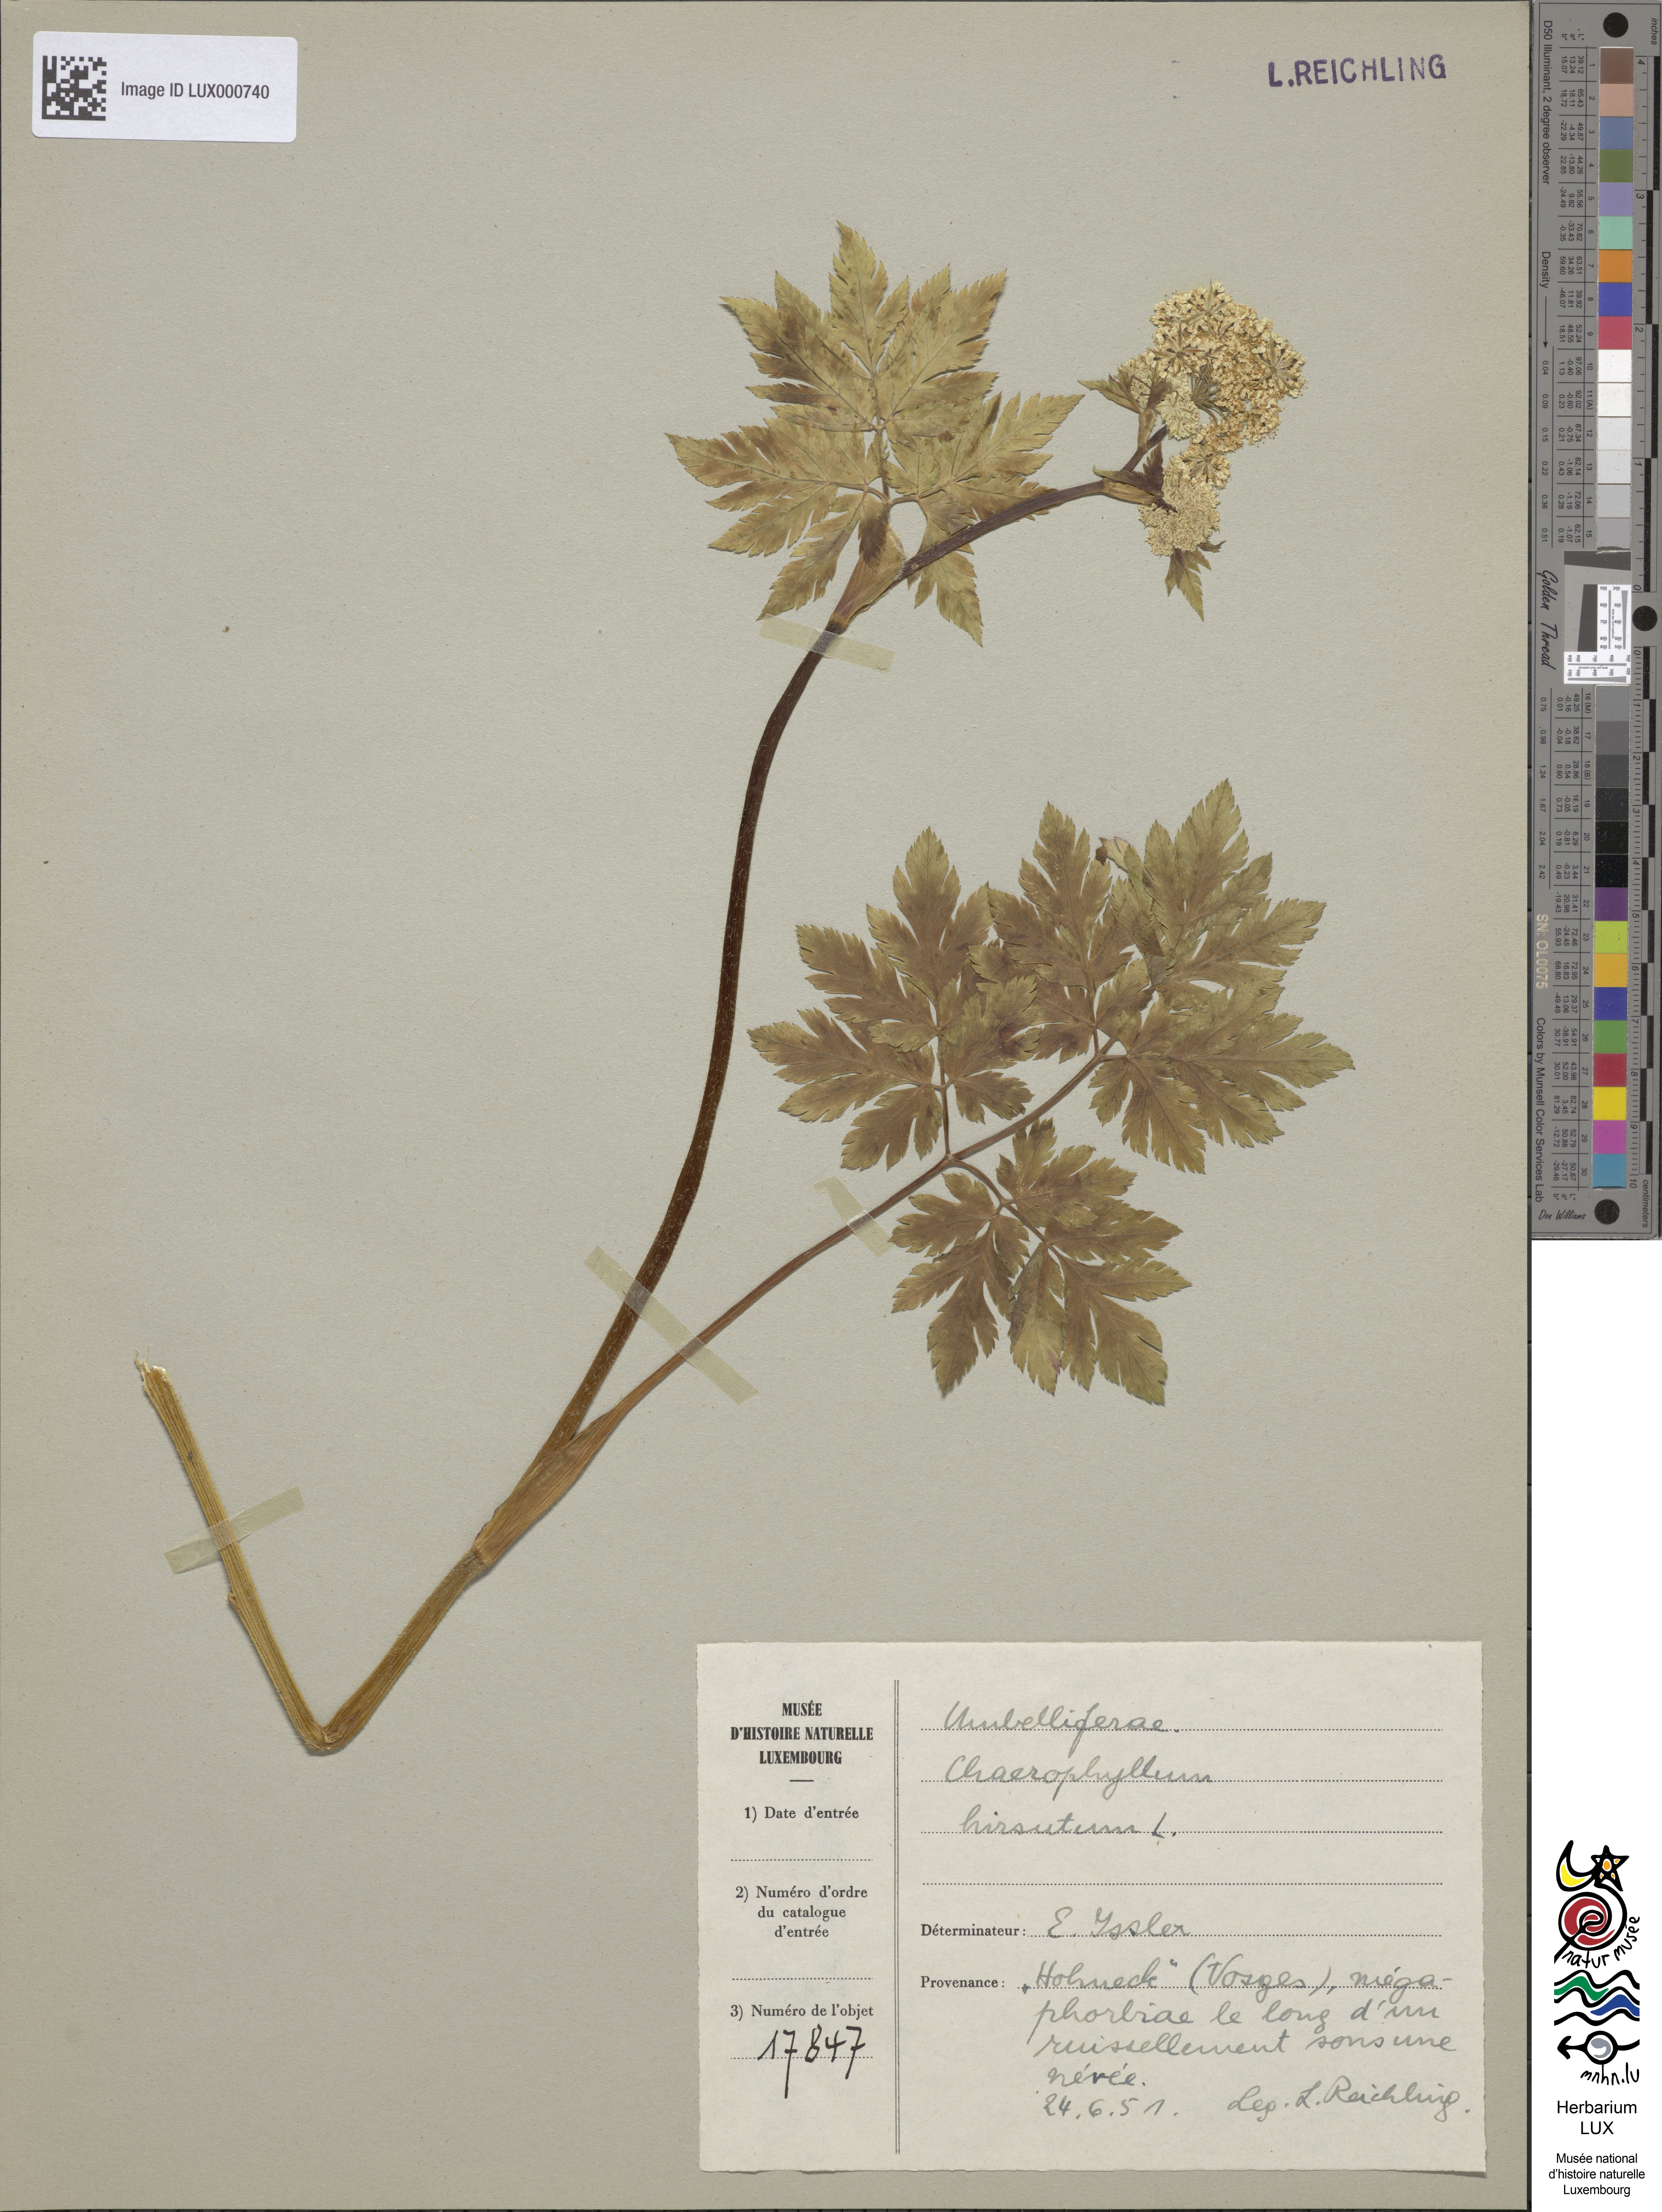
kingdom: Plantae
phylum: Tracheophyta
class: Magnoliopsida
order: Apiales
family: Apiaceae
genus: Chaerophyllum
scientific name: Chaerophyllum hirsutum
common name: Hairy chervil
